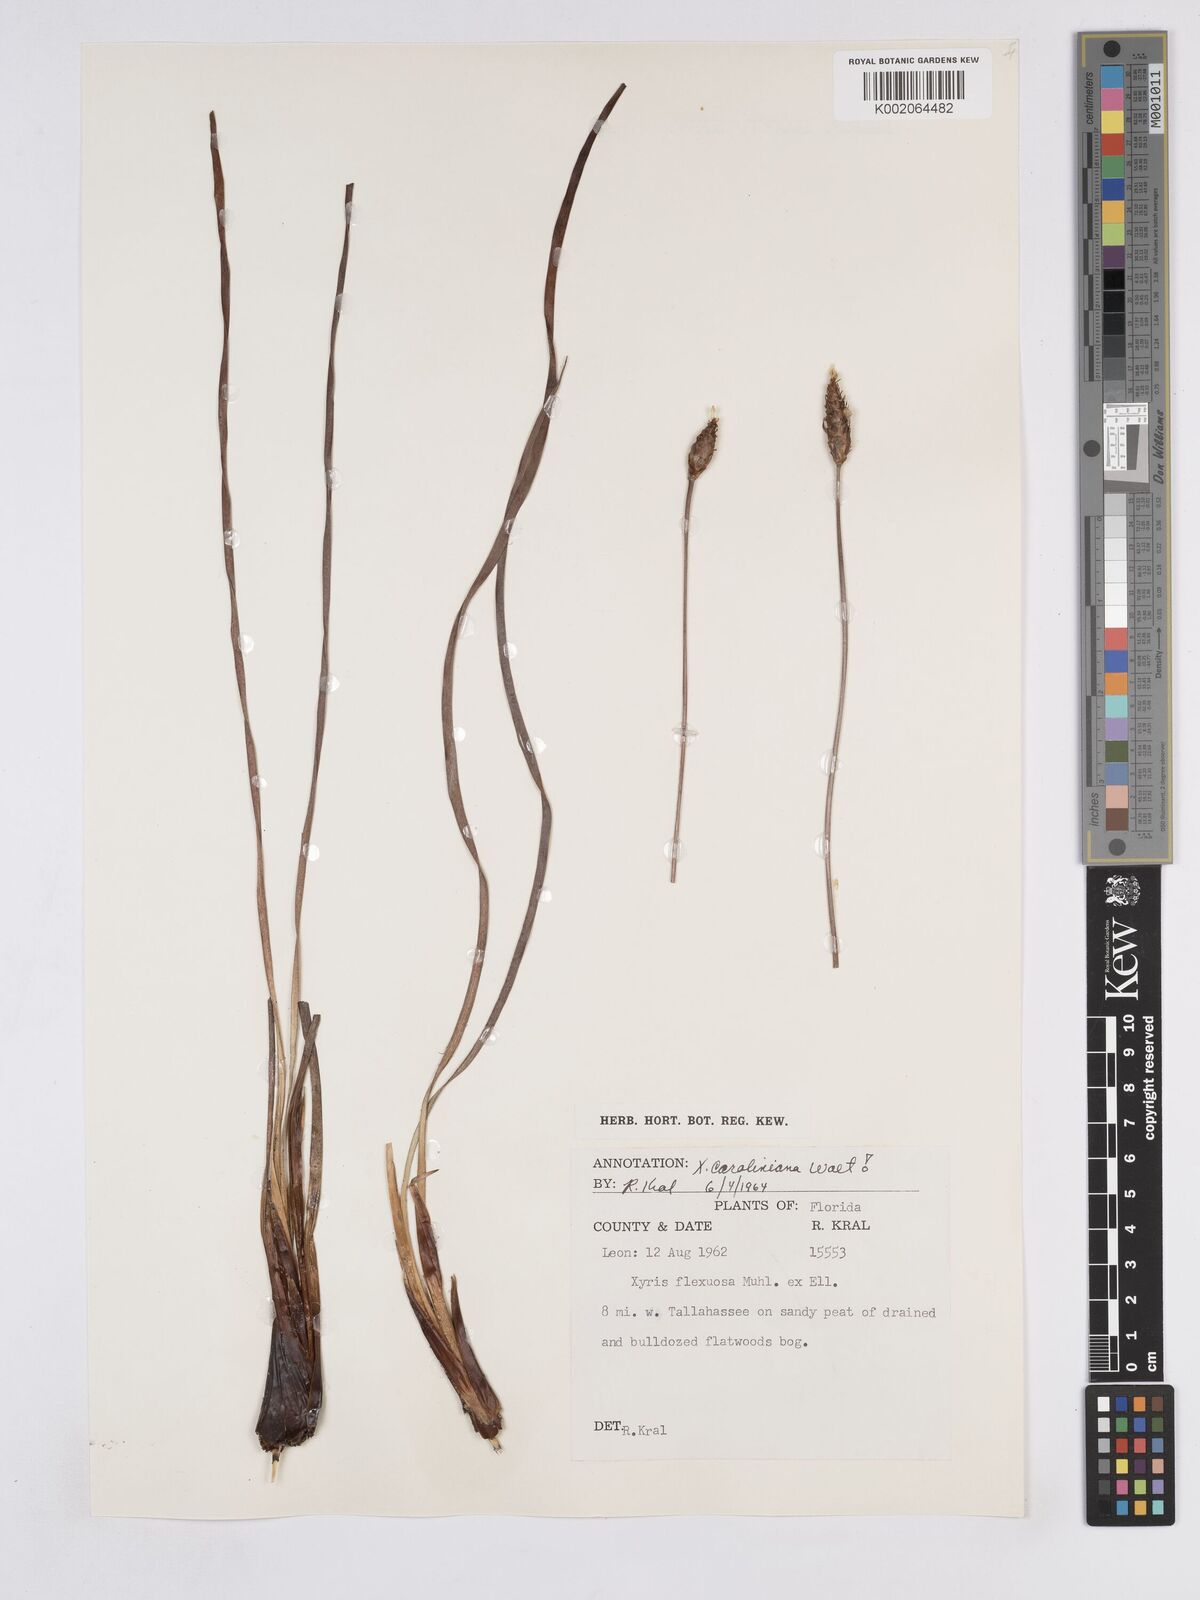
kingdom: Plantae
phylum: Tracheophyta
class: Liliopsida
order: Poales
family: Xyridaceae
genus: Xyris
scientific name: Xyris caroliniana
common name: Carolina yellow-eyed-grass
